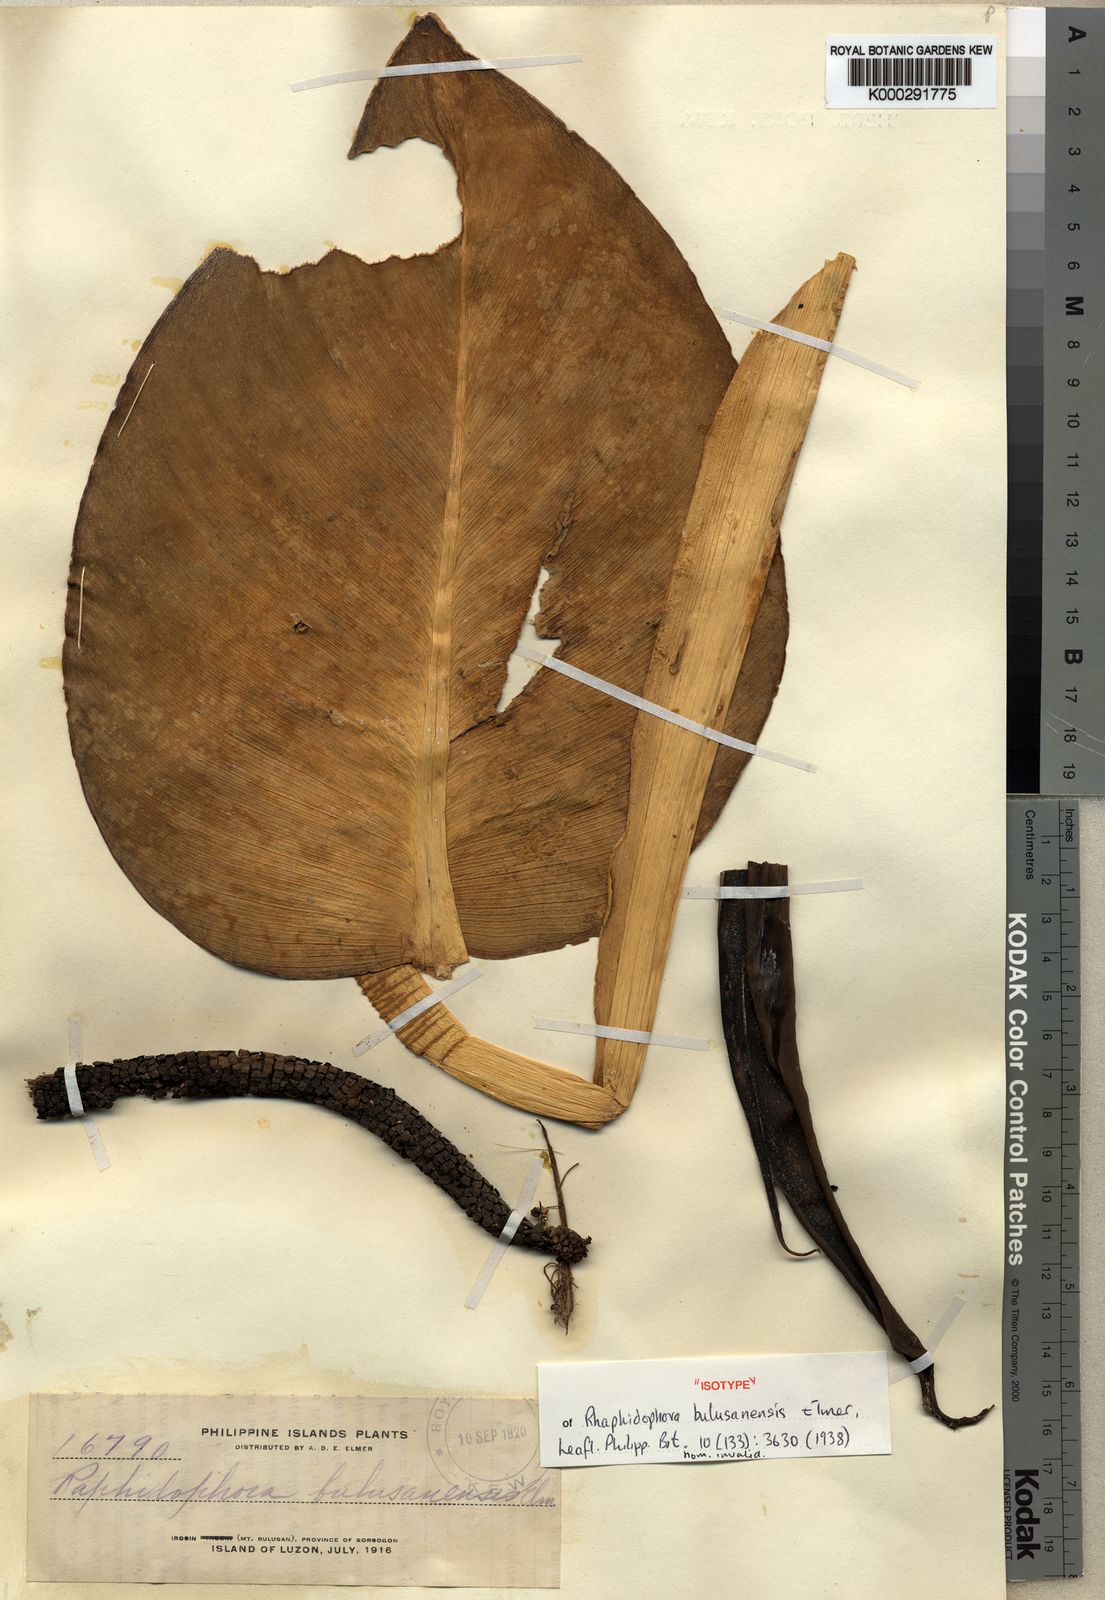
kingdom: Plantae
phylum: Tracheophyta
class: Liliopsida
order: Alismatales
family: Araceae
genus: Rhaphidophora
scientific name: Rhaphidophora monticola
